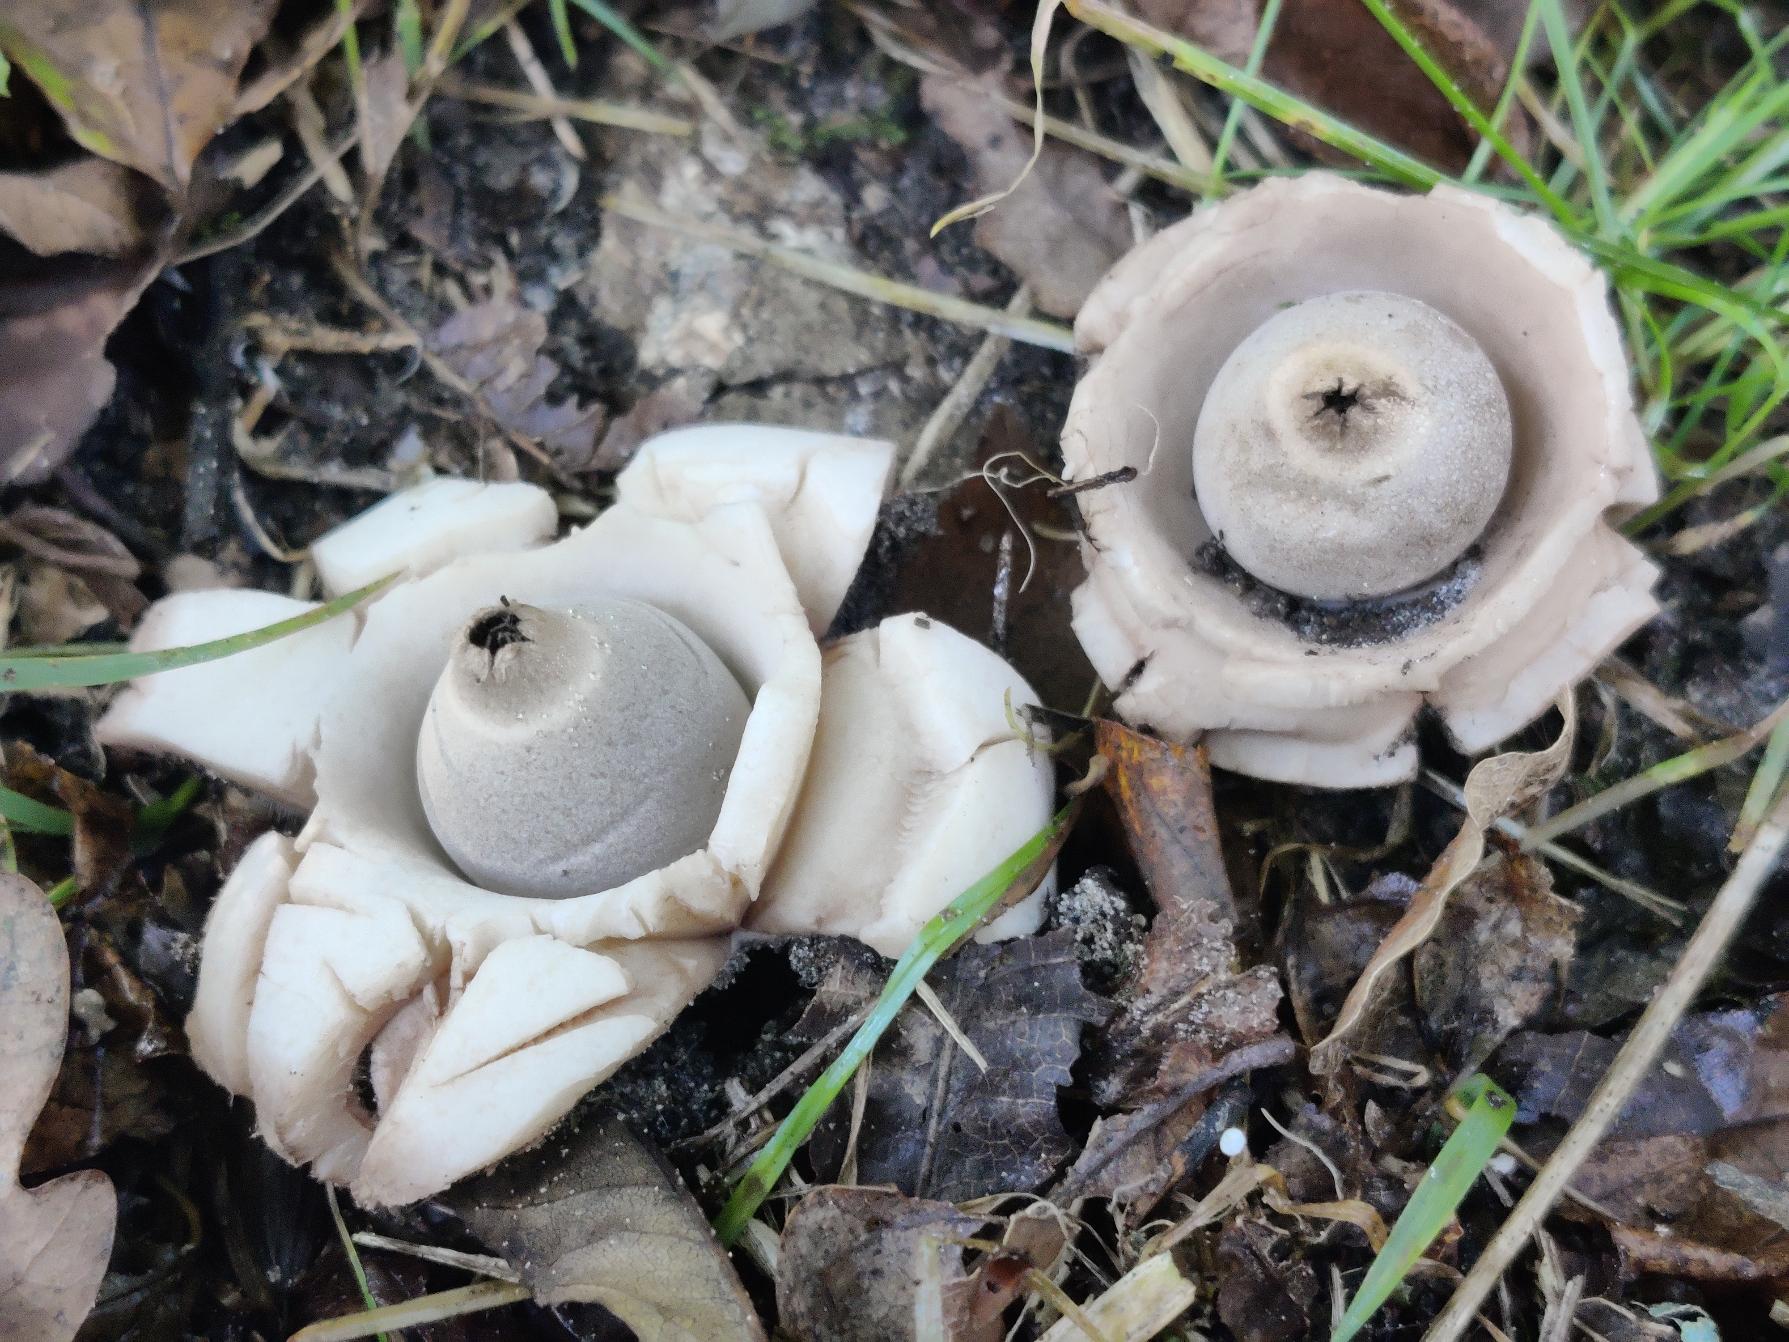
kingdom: Fungi
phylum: Basidiomycota
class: Agaricomycetes
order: Geastrales
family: Geastraceae
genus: Geastrum
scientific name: Geastrum michelianum
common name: Kødet stjernebold
